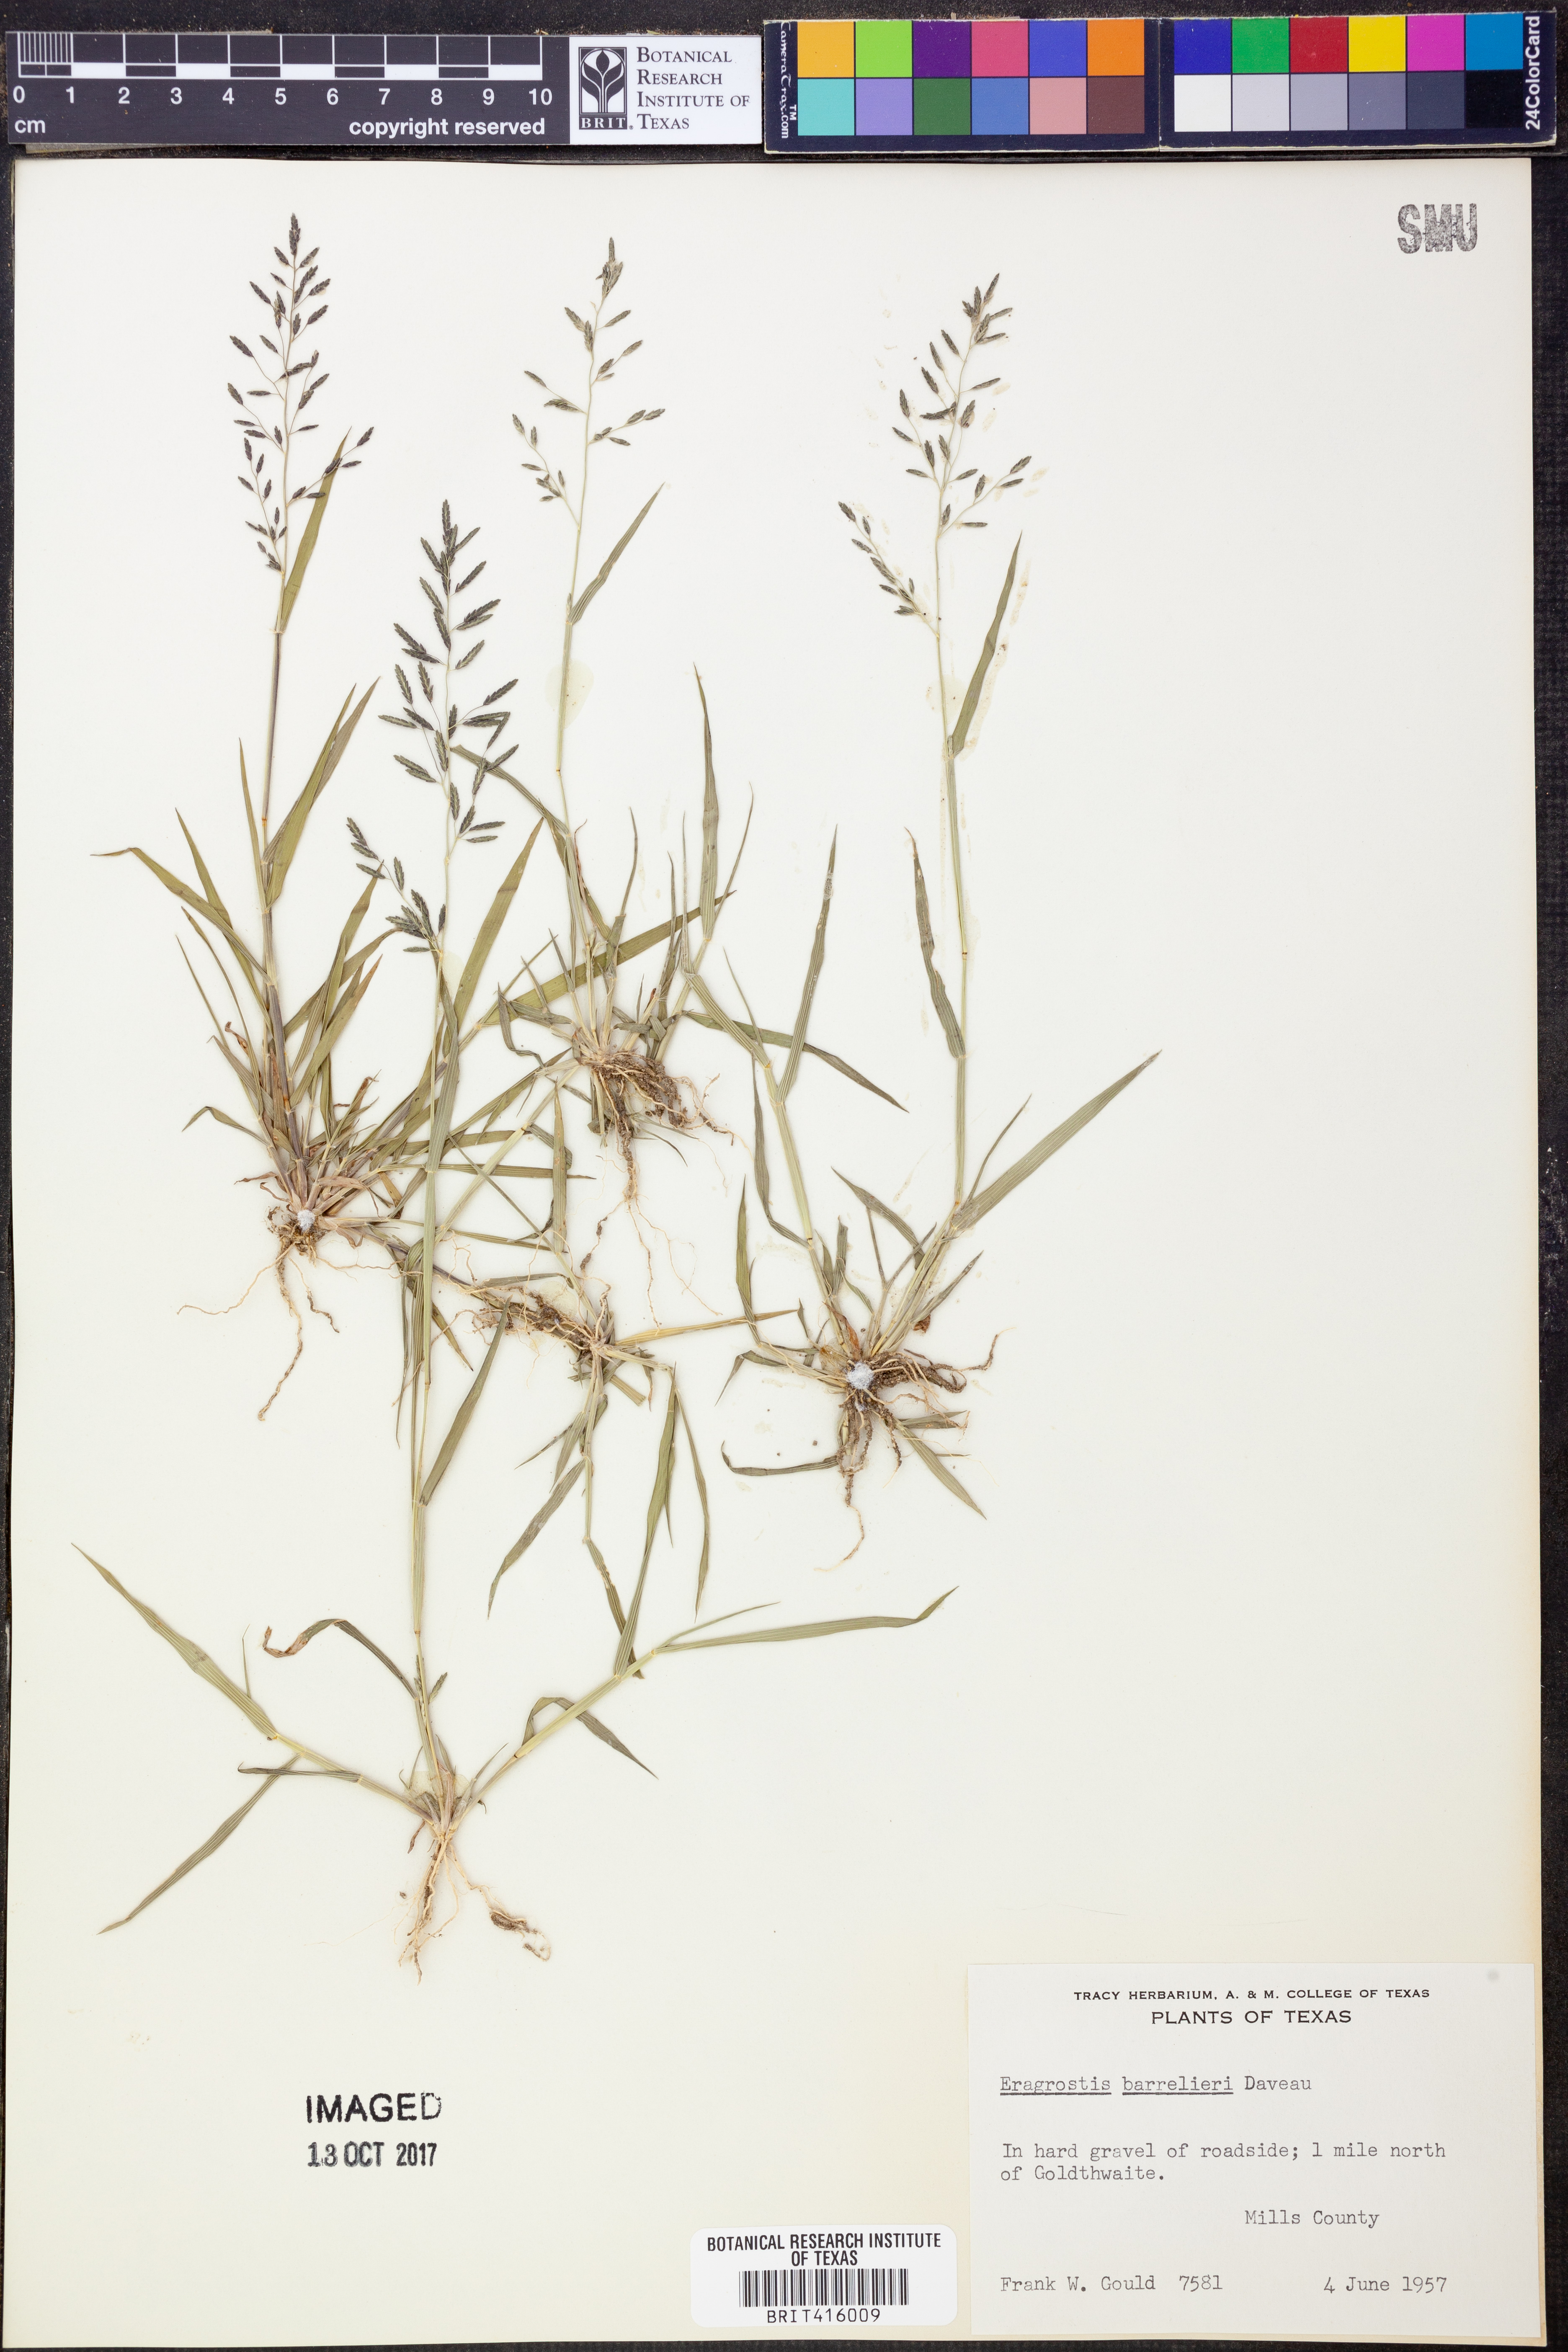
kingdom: Plantae
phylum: Tracheophyta
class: Liliopsida
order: Poales
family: Poaceae
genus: Eragrostis
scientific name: Eragrostis barrelieri
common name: Mediterranean lovegrass
